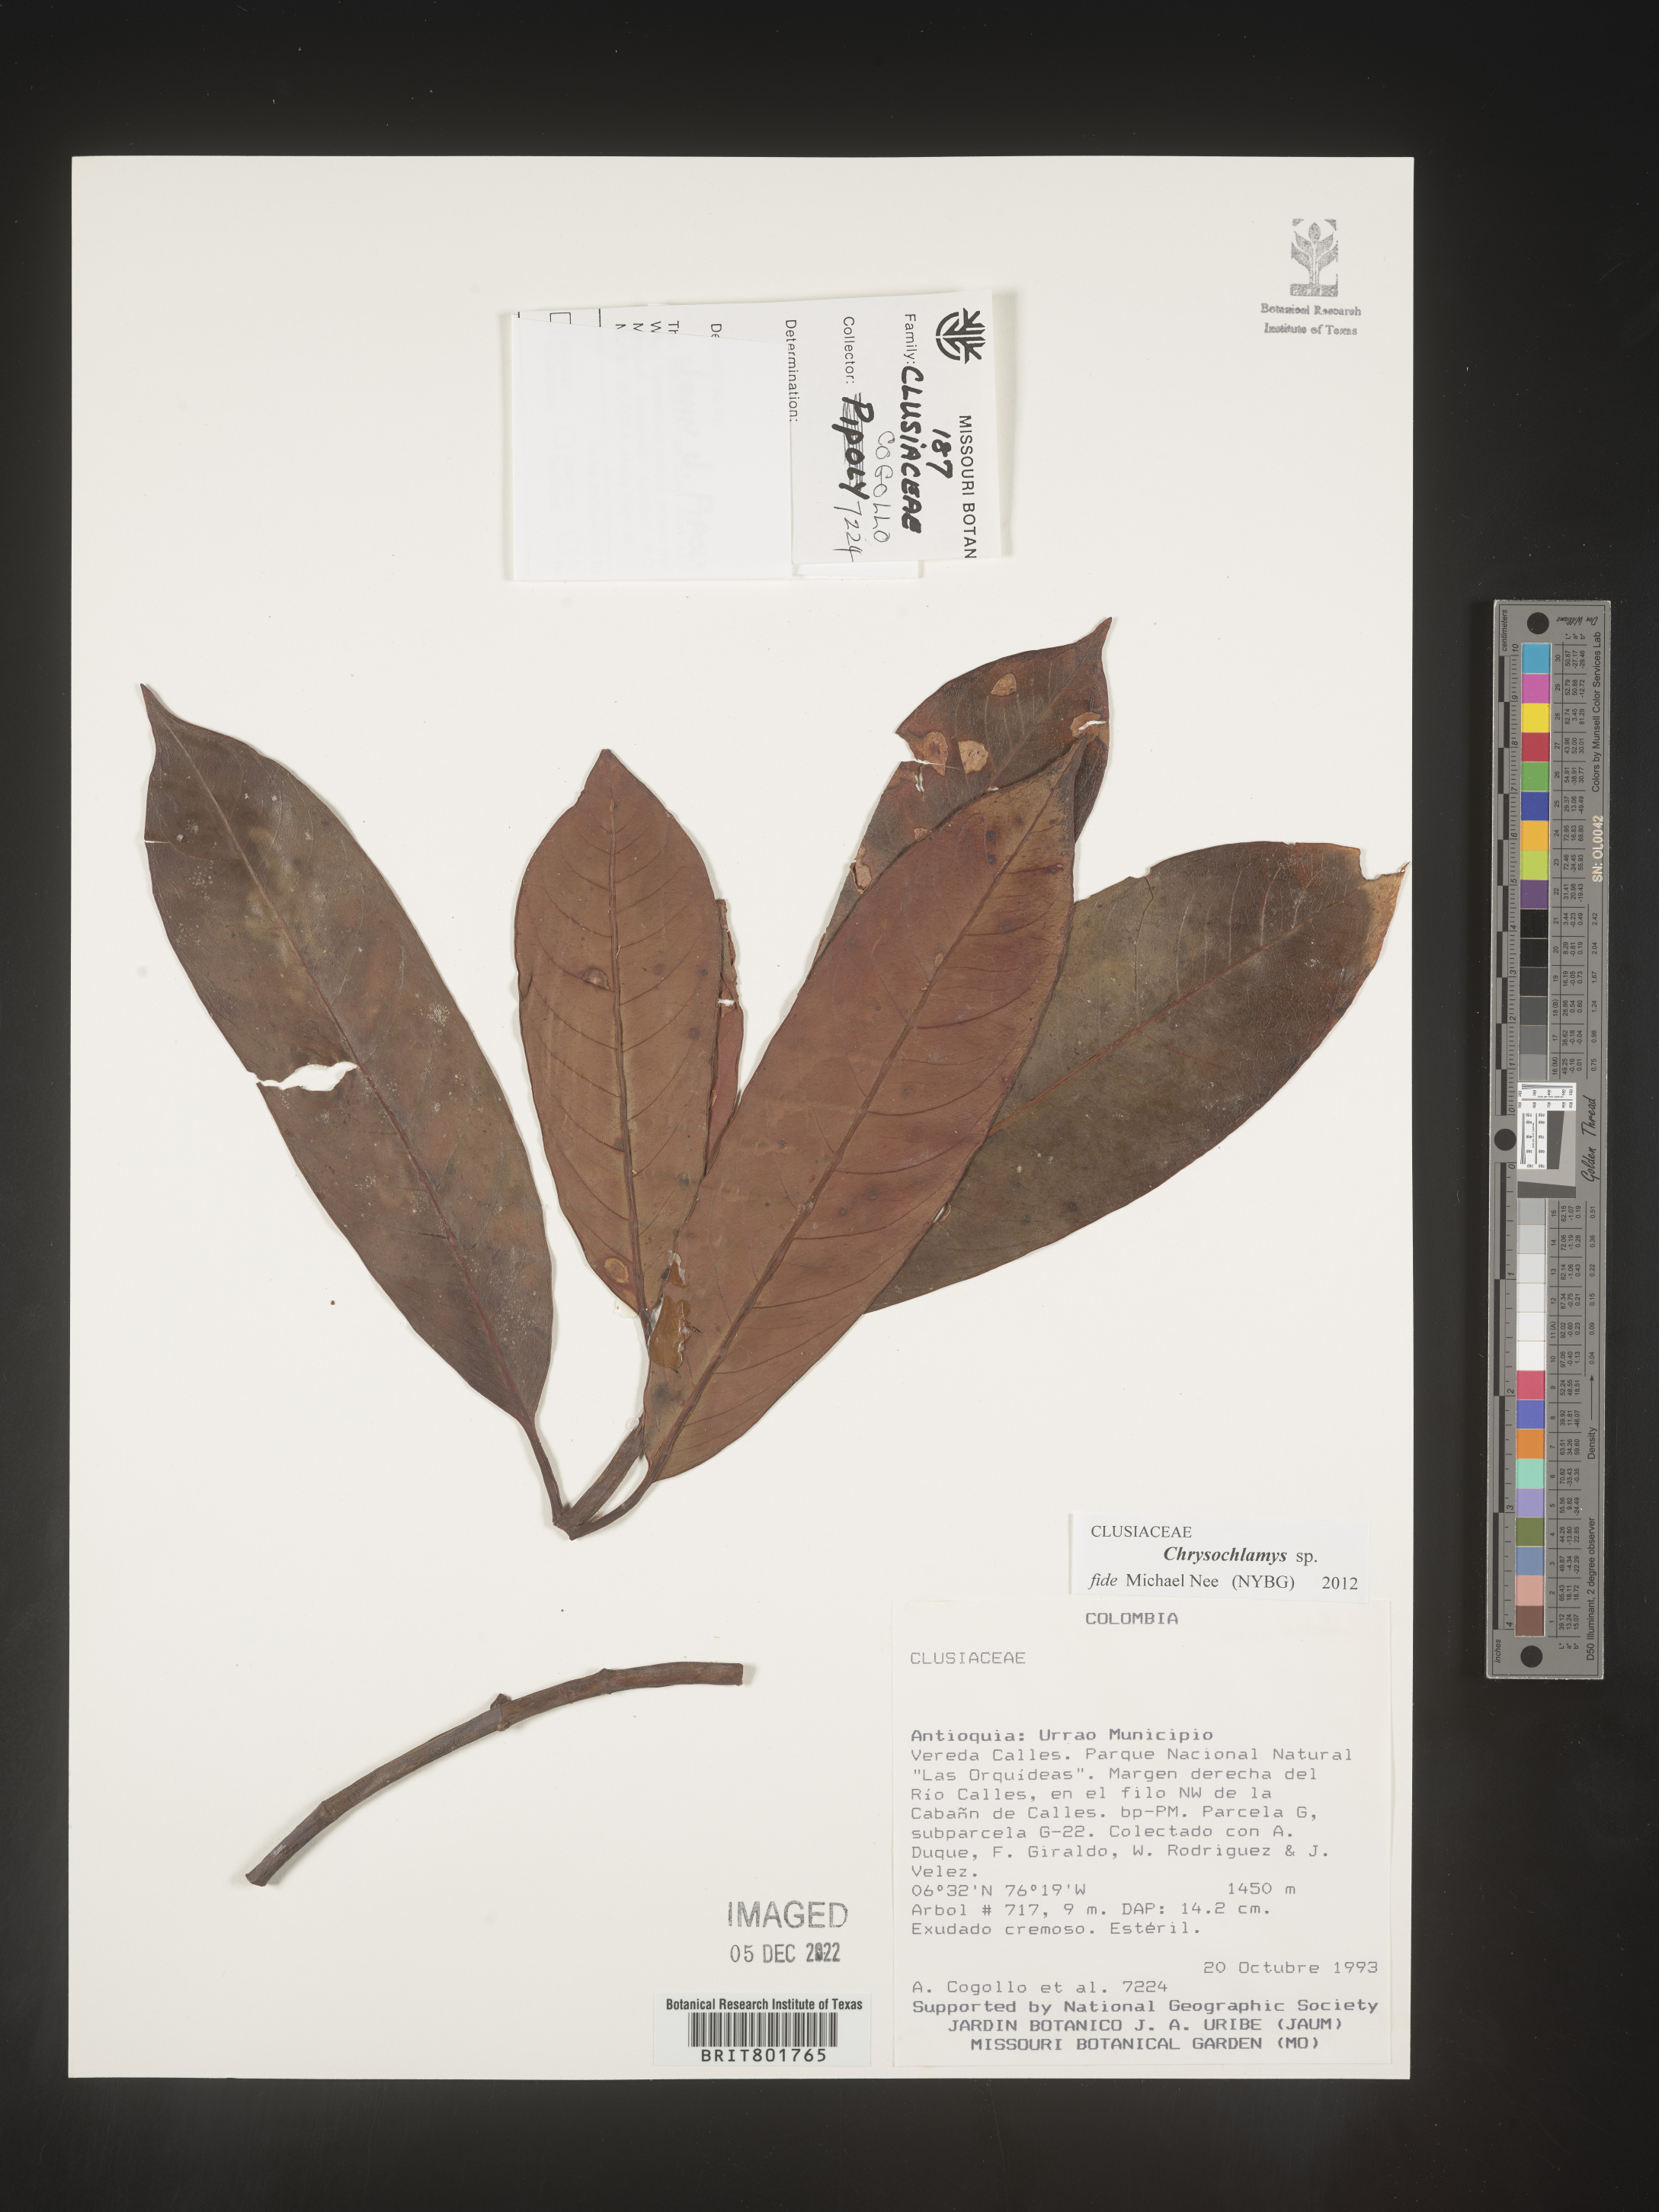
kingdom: Plantae
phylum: Tracheophyta
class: Magnoliopsida
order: Malpighiales
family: Clusiaceae
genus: Chrysochlamys
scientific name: Chrysochlamys
